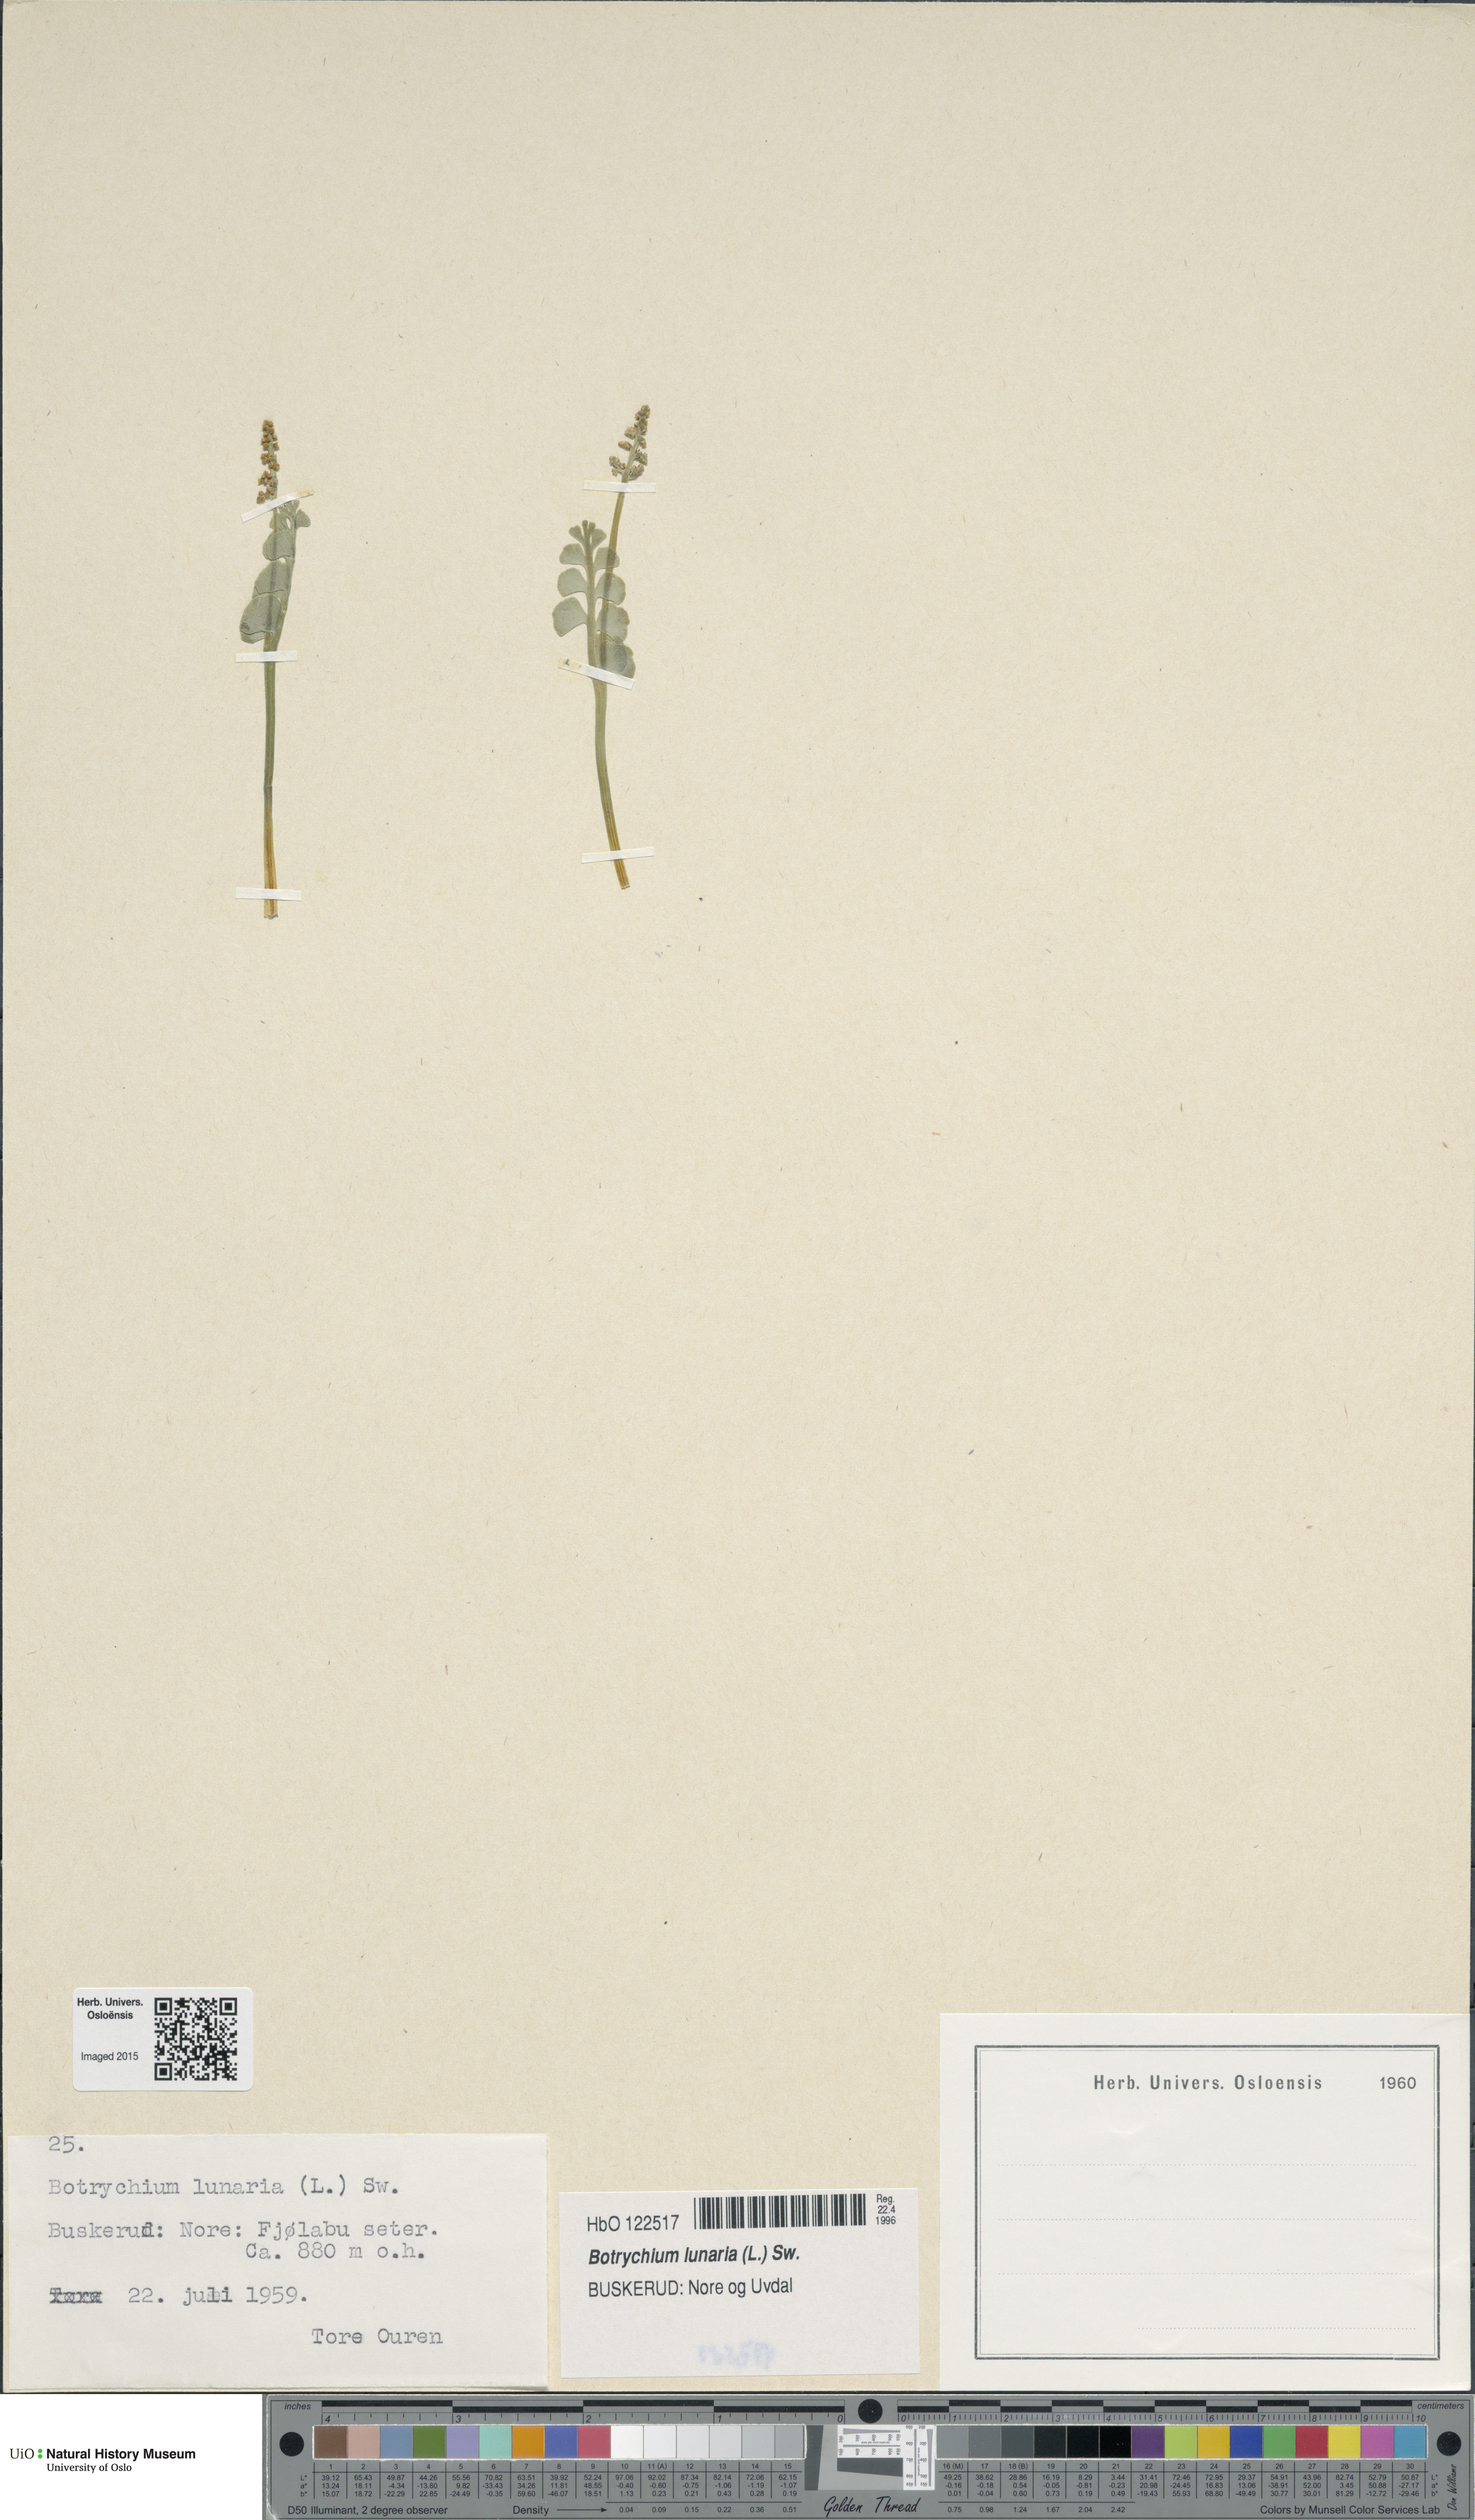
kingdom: Plantae
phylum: Tracheophyta
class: Polypodiopsida
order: Ophioglossales
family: Ophioglossaceae
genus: Botrychium
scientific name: Botrychium lunaria
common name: Moonwort
